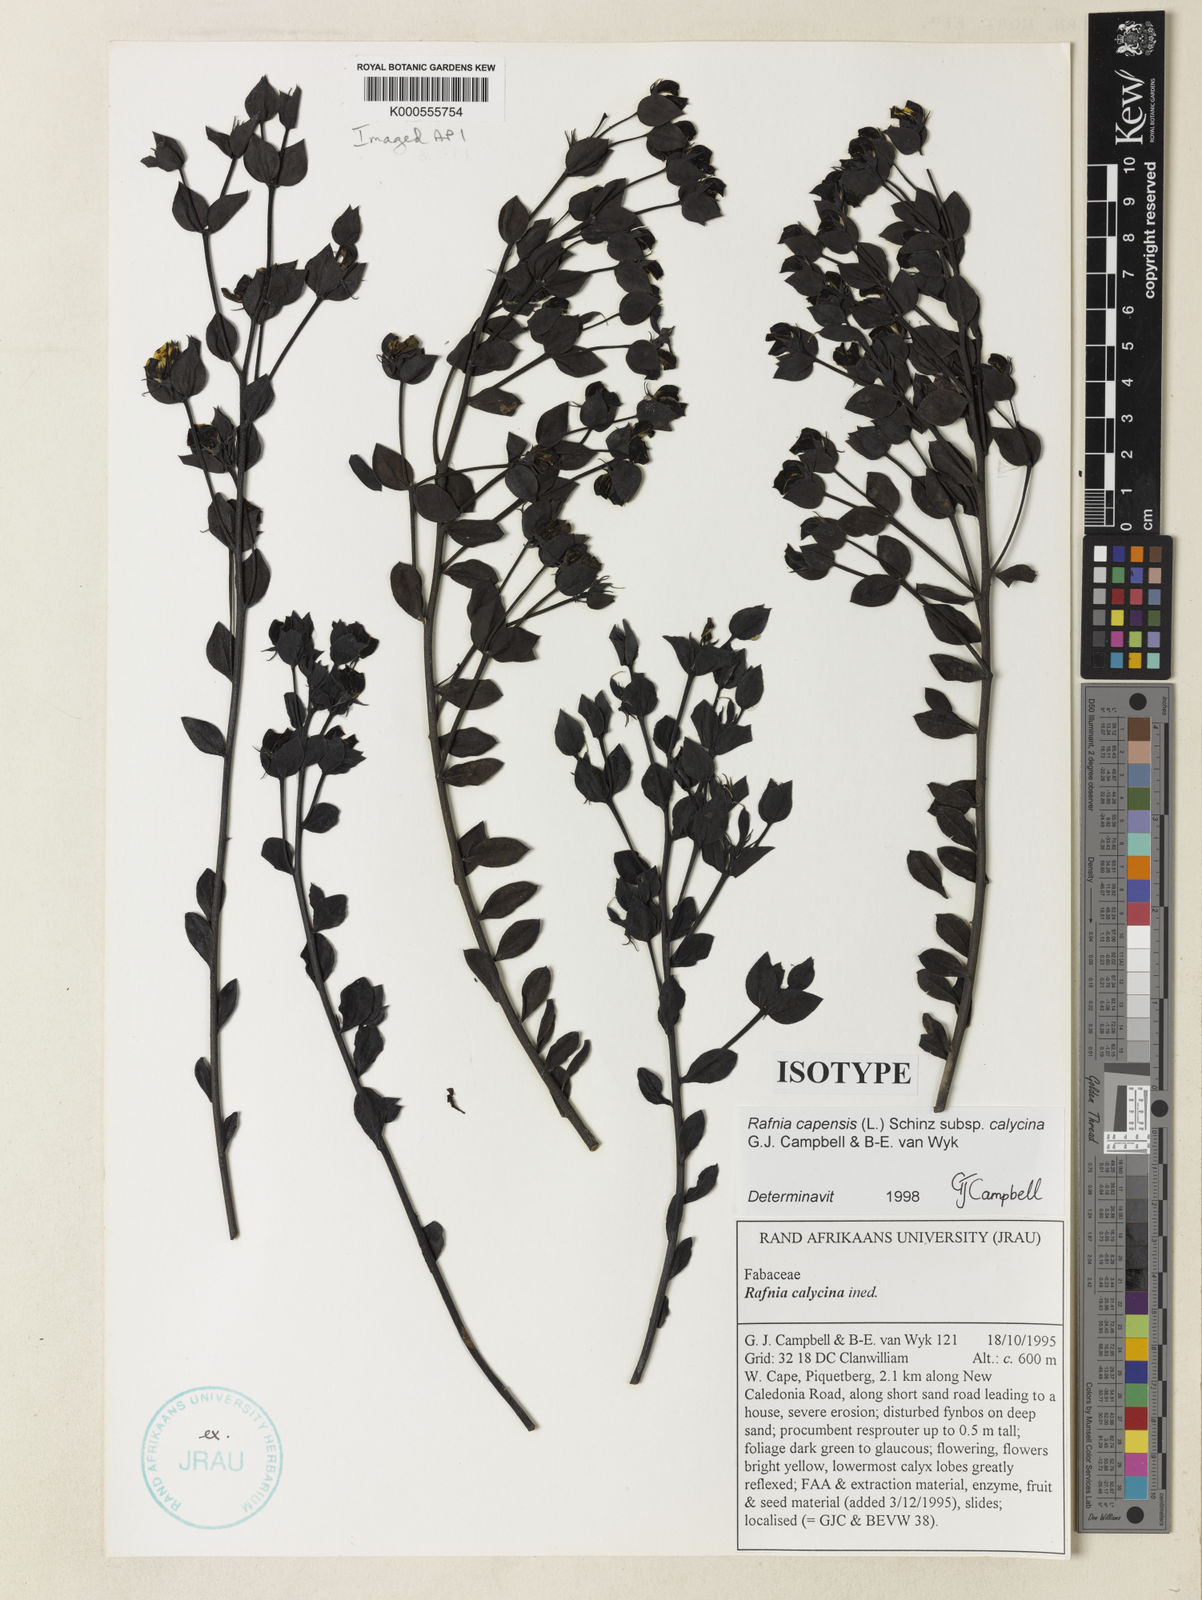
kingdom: Plantae
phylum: Tracheophyta
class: Magnoliopsida
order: Fabales
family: Fabaceae
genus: Rafnia
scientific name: Rafnia capensis
